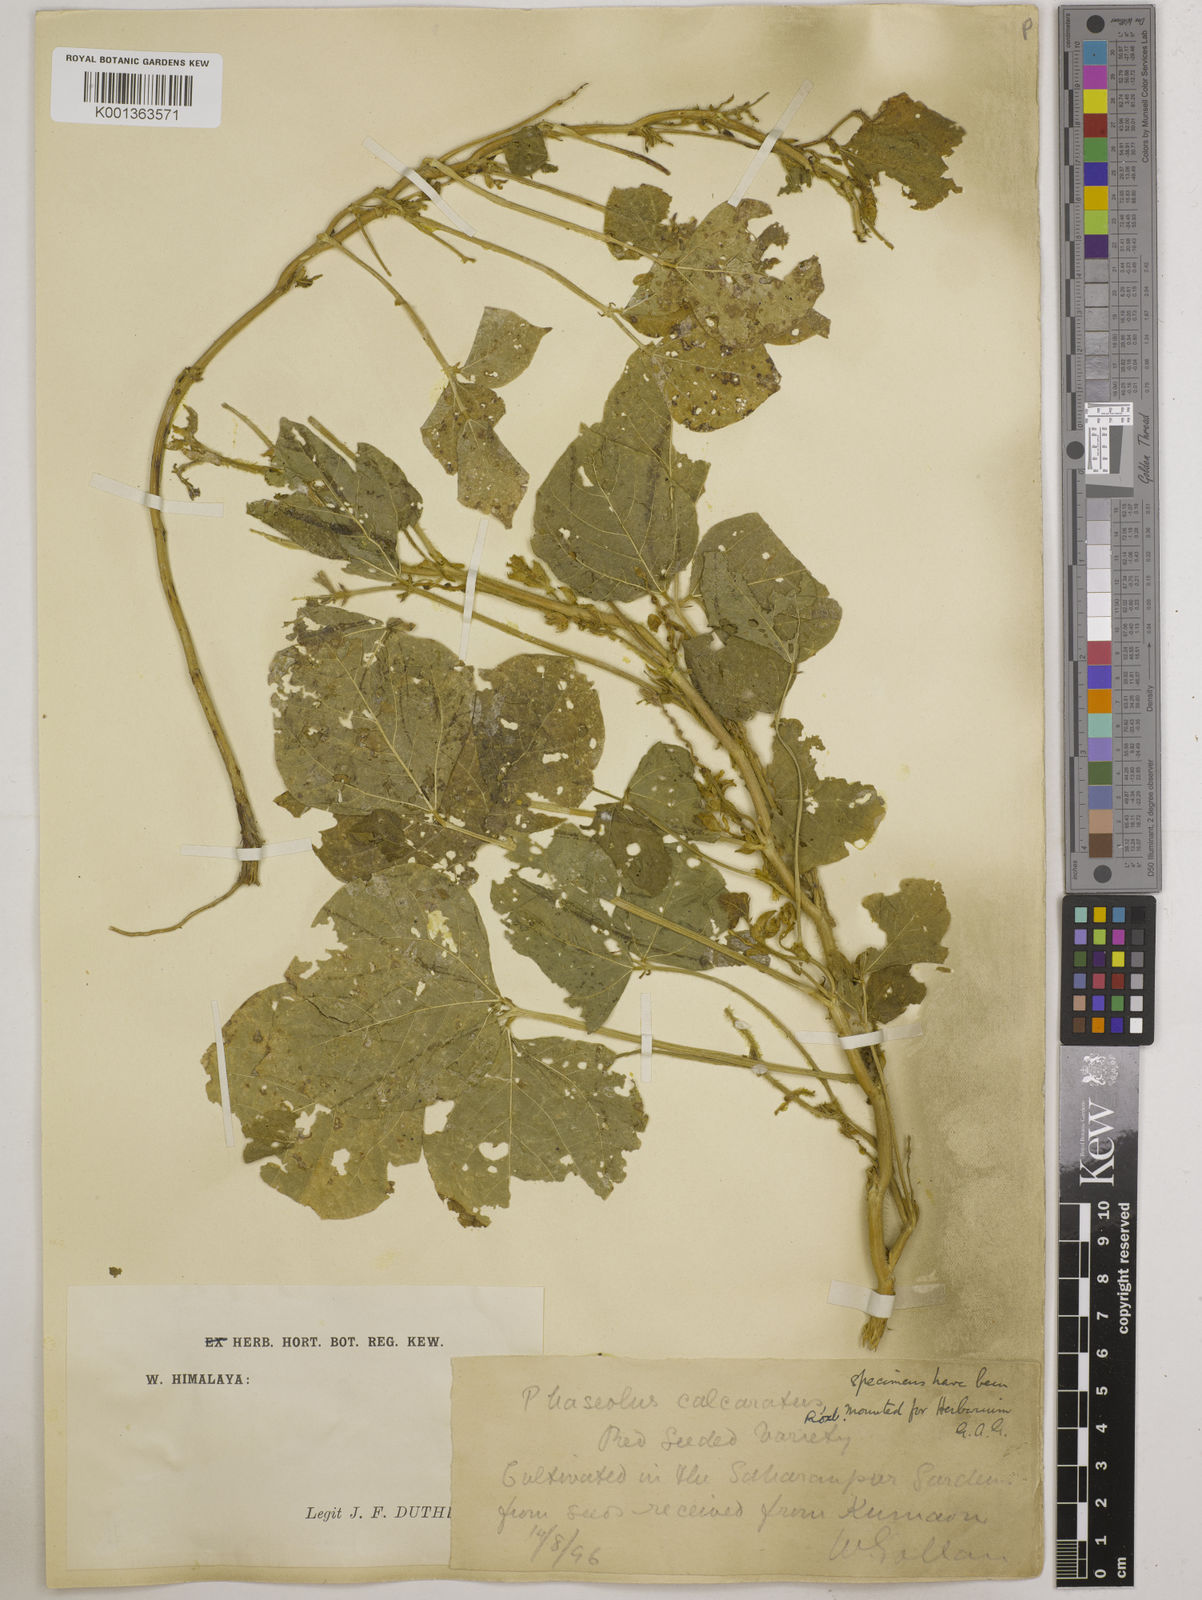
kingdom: Plantae
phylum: Tracheophyta
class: Magnoliopsida
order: Fabales
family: Fabaceae
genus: Vigna
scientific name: Vigna umbellata
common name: Oriental-bean
